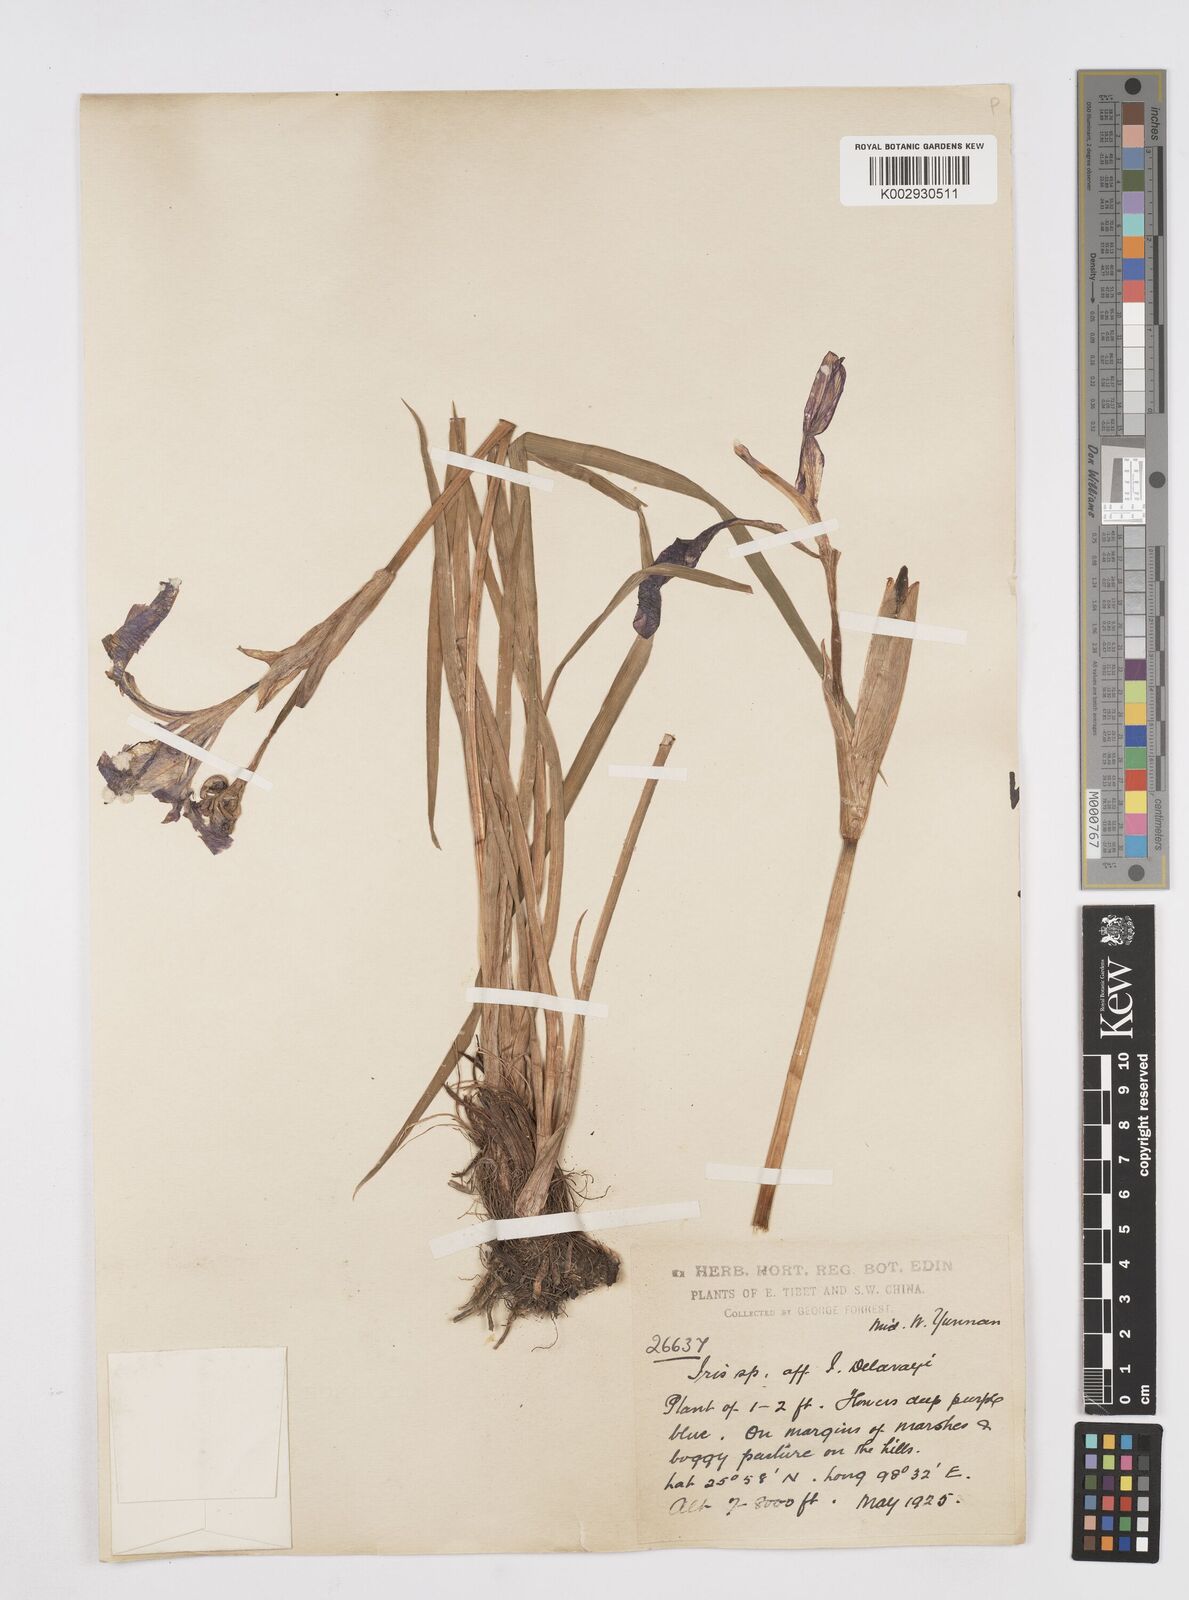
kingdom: Plantae
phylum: Tracheophyta
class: Liliopsida
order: Asparagales
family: Iridaceae
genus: Iris
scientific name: Iris chrysographes
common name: Gold-vein iris
